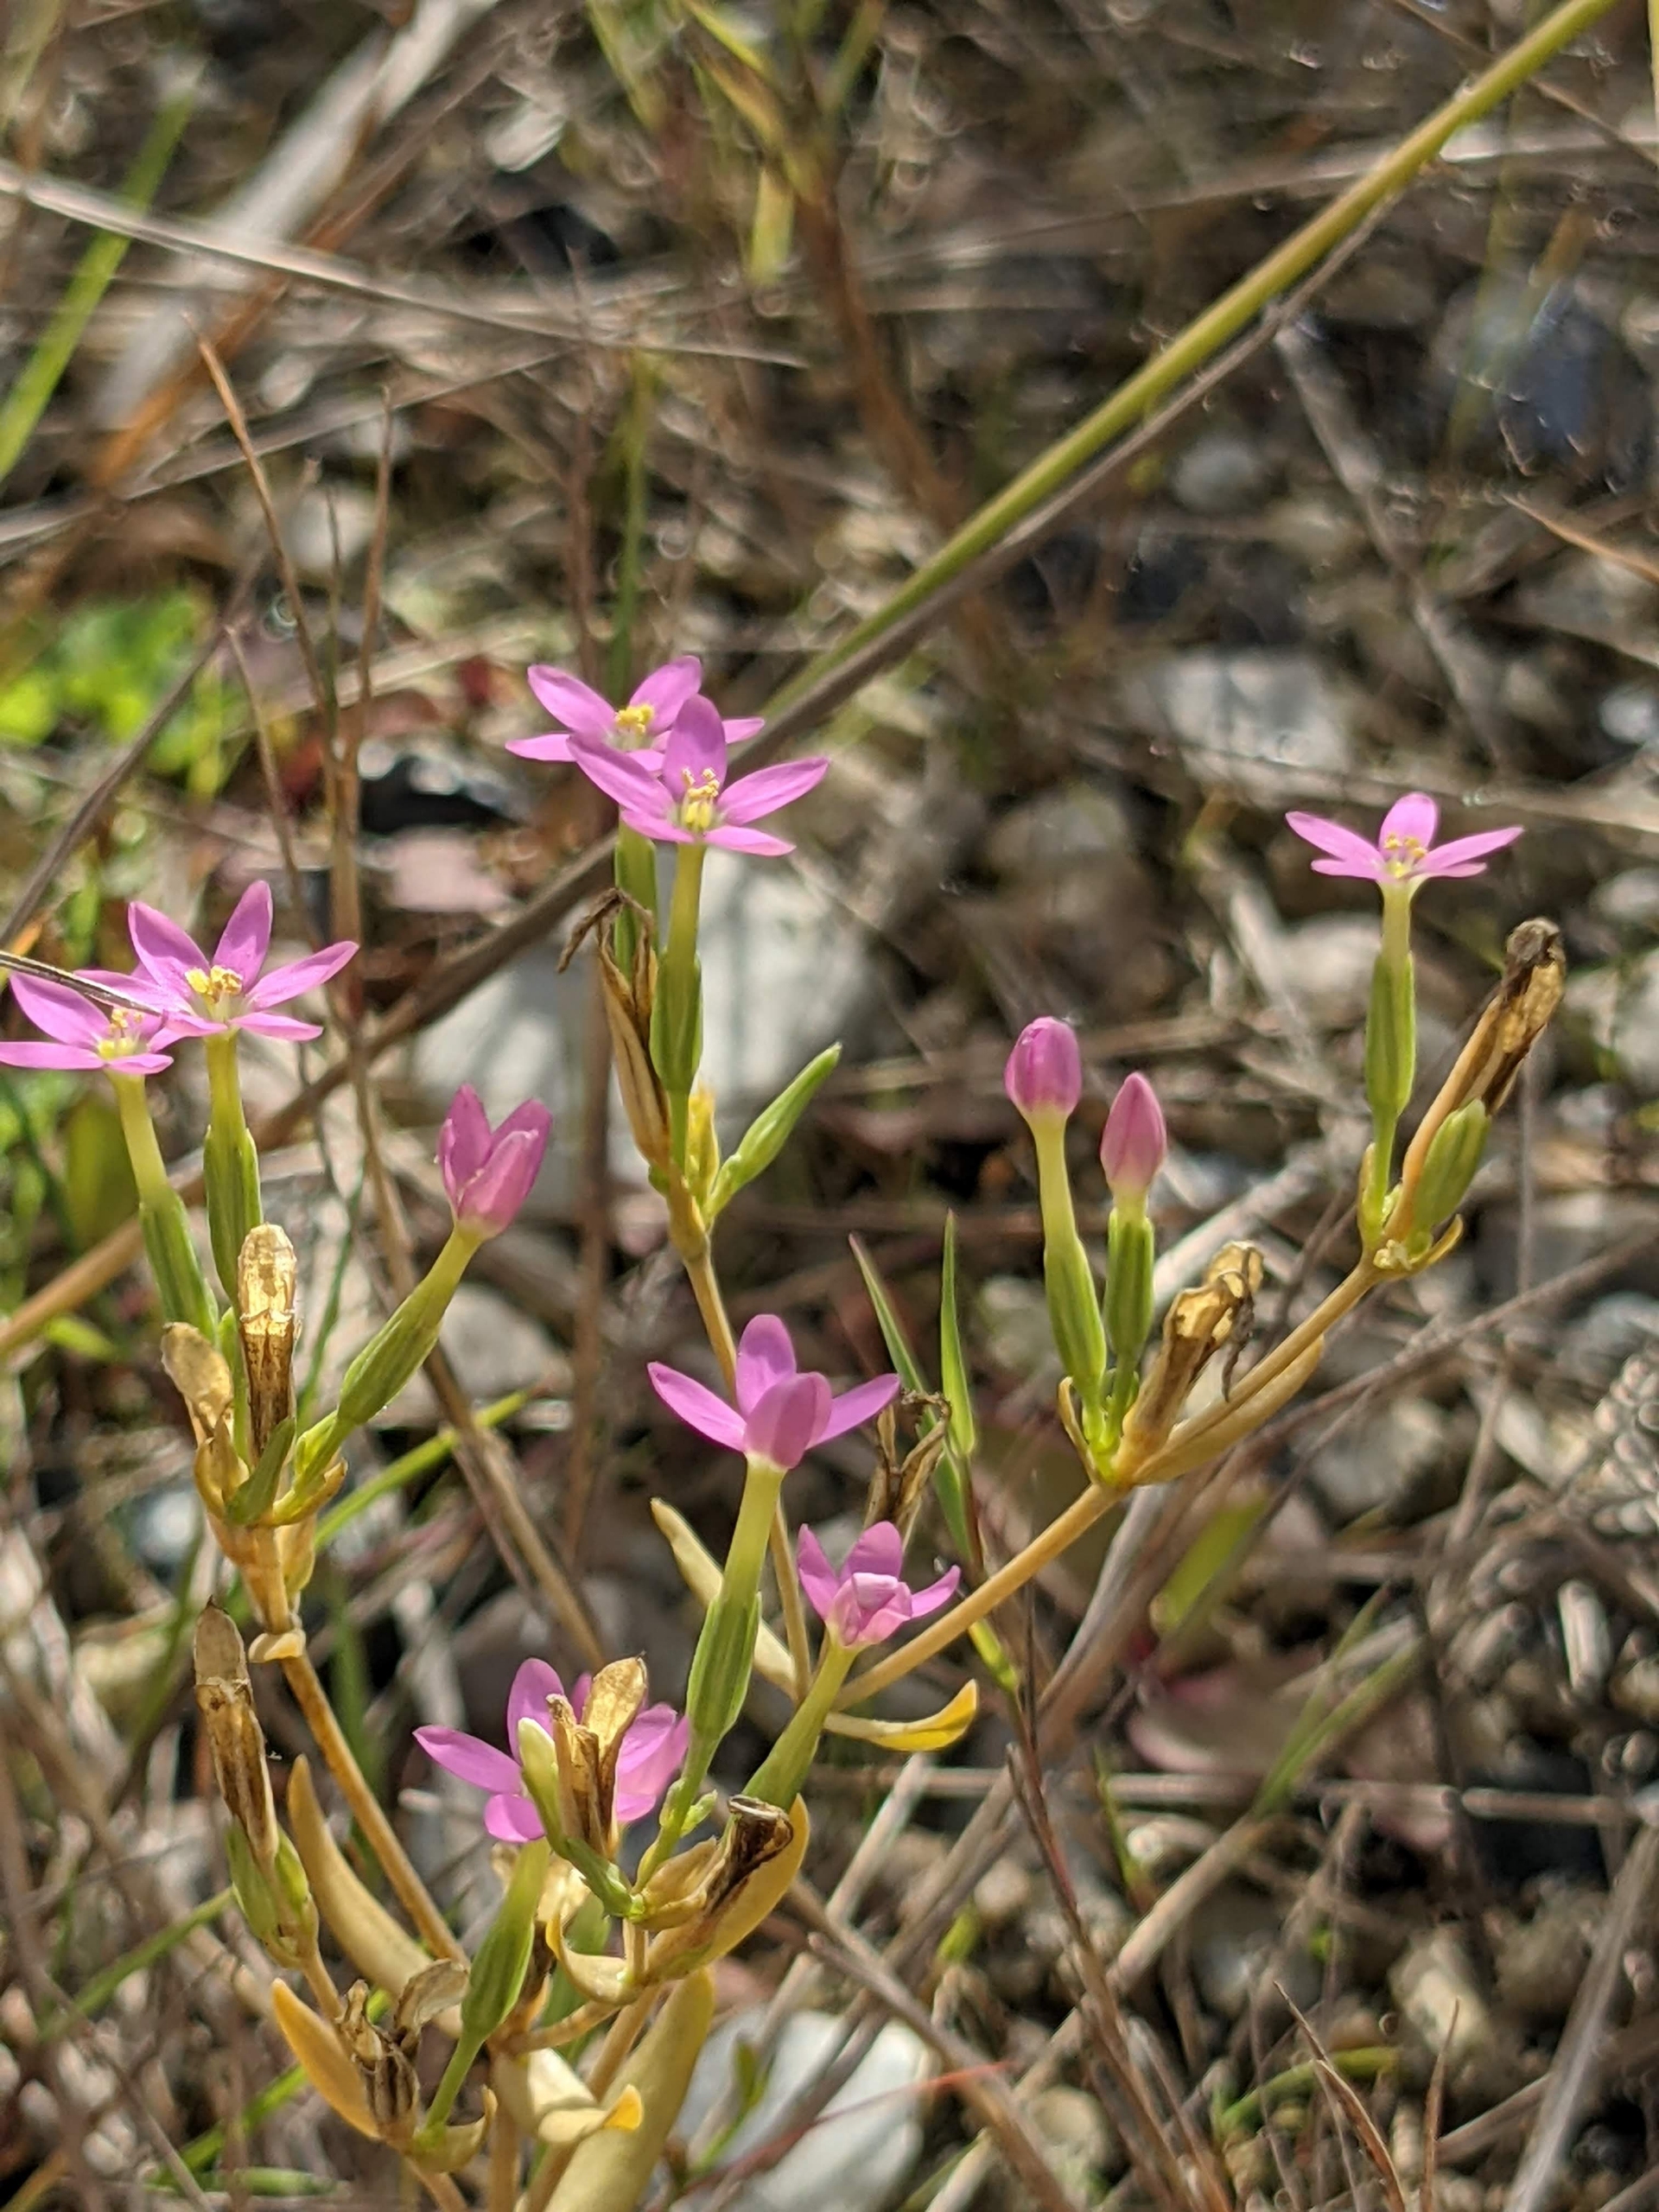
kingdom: Plantae
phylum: Tracheophyta
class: Magnoliopsida
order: Gentianales
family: Gentianaceae
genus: Centaurium
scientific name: Centaurium erythraea
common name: Mark-tusindgylden
